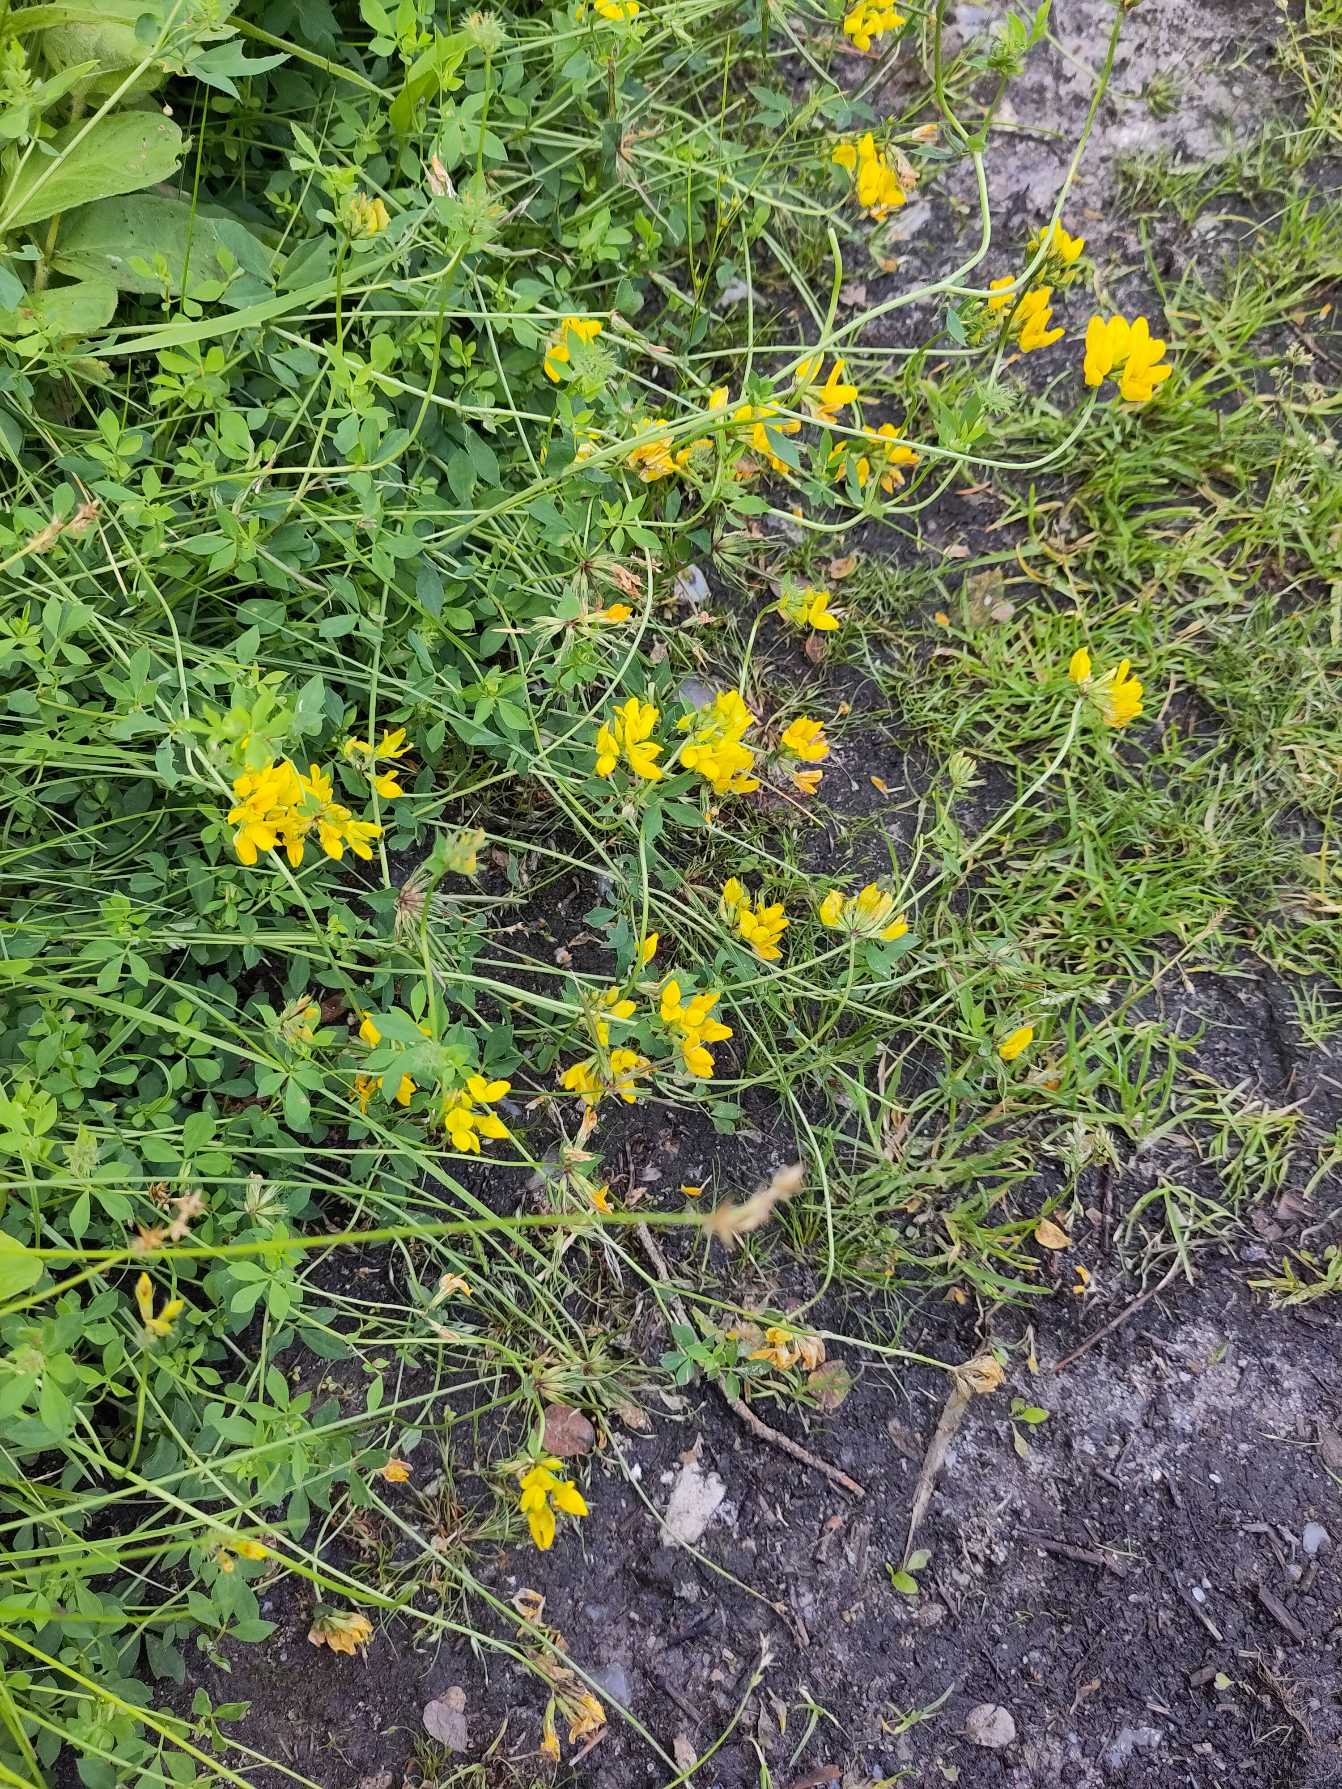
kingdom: Plantae
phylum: Tracheophyta
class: Magnoliopsida
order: Fabales
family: Fabaceae
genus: Lotus
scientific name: Lotus pedunculatus
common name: Sump-kællingetand (varietet)
